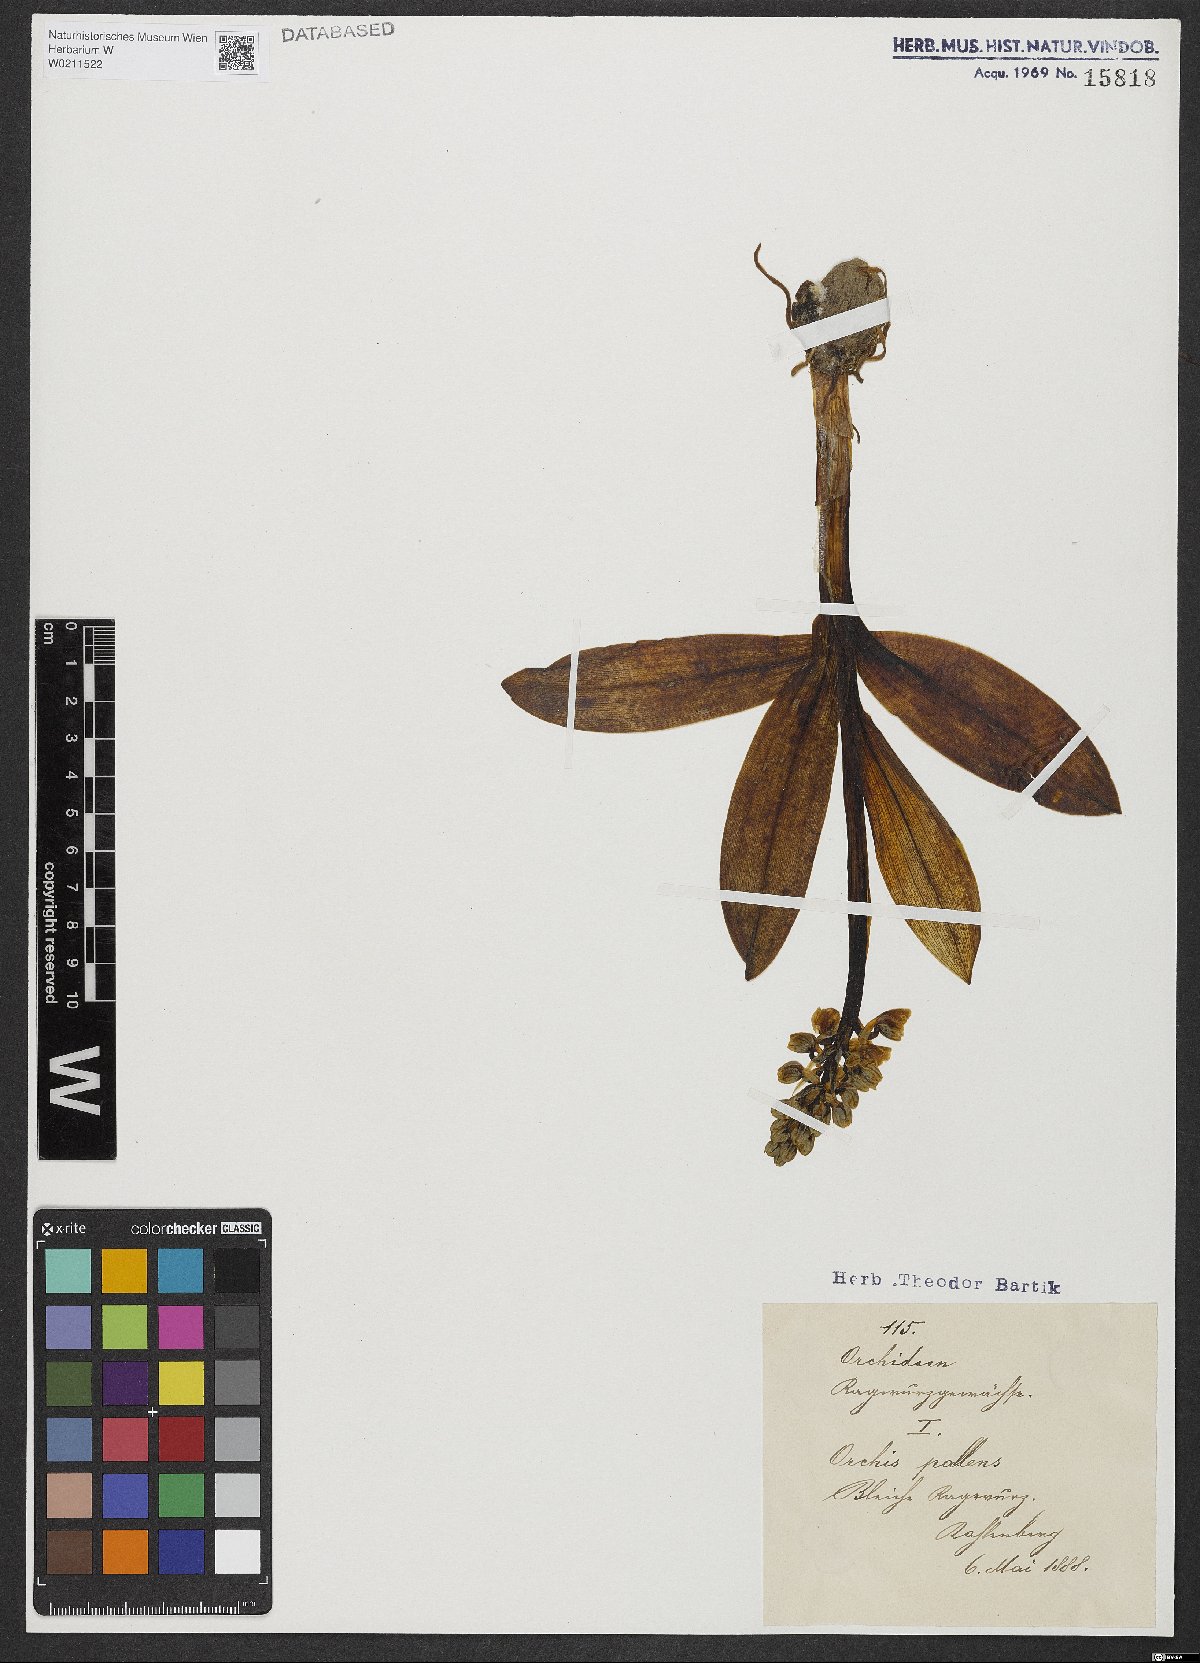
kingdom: Plantae
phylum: Tracheophyta
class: Liliopsida
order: Asparagales
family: Orchidaceae
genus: Orchis
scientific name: Orchis pallens
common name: Pale-flowered orchid
